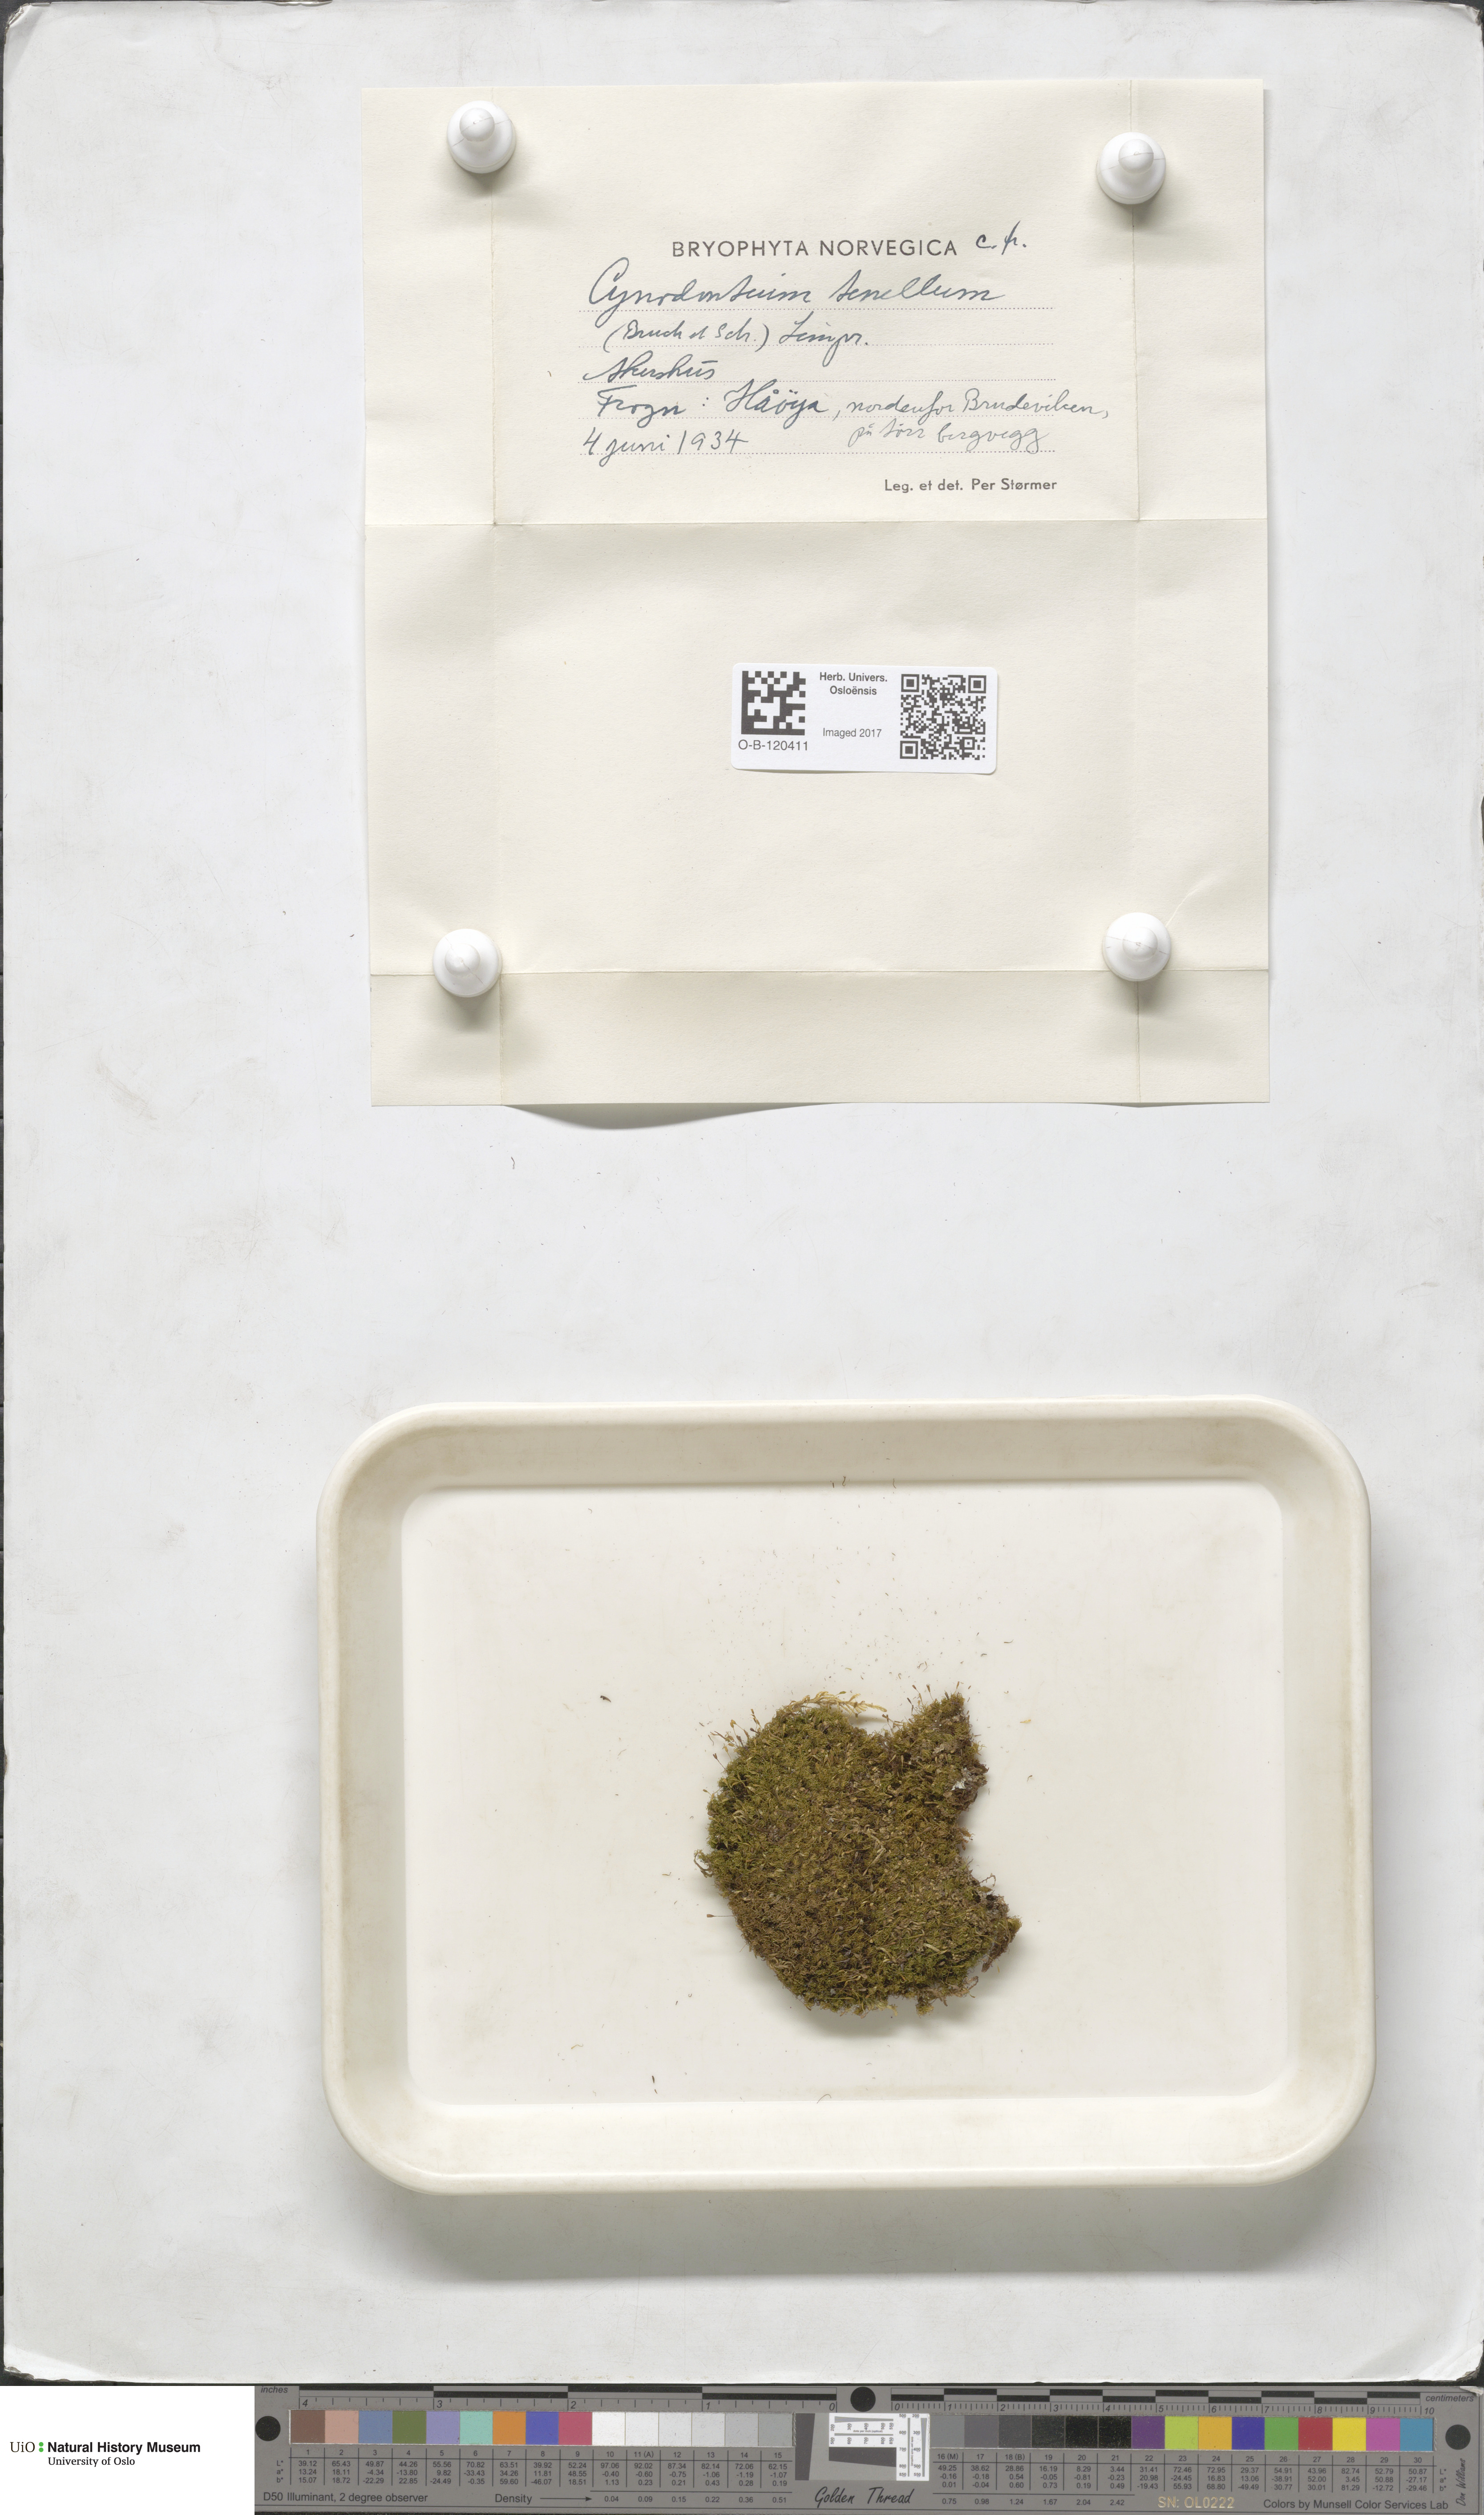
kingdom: Plantae
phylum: Bryophyta
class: Bryopsida
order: Dicranales
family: Rhabdoweisiaceae
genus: Cynodontium
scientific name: Cynodontium tenellum
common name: Delicate dogtooth moss
